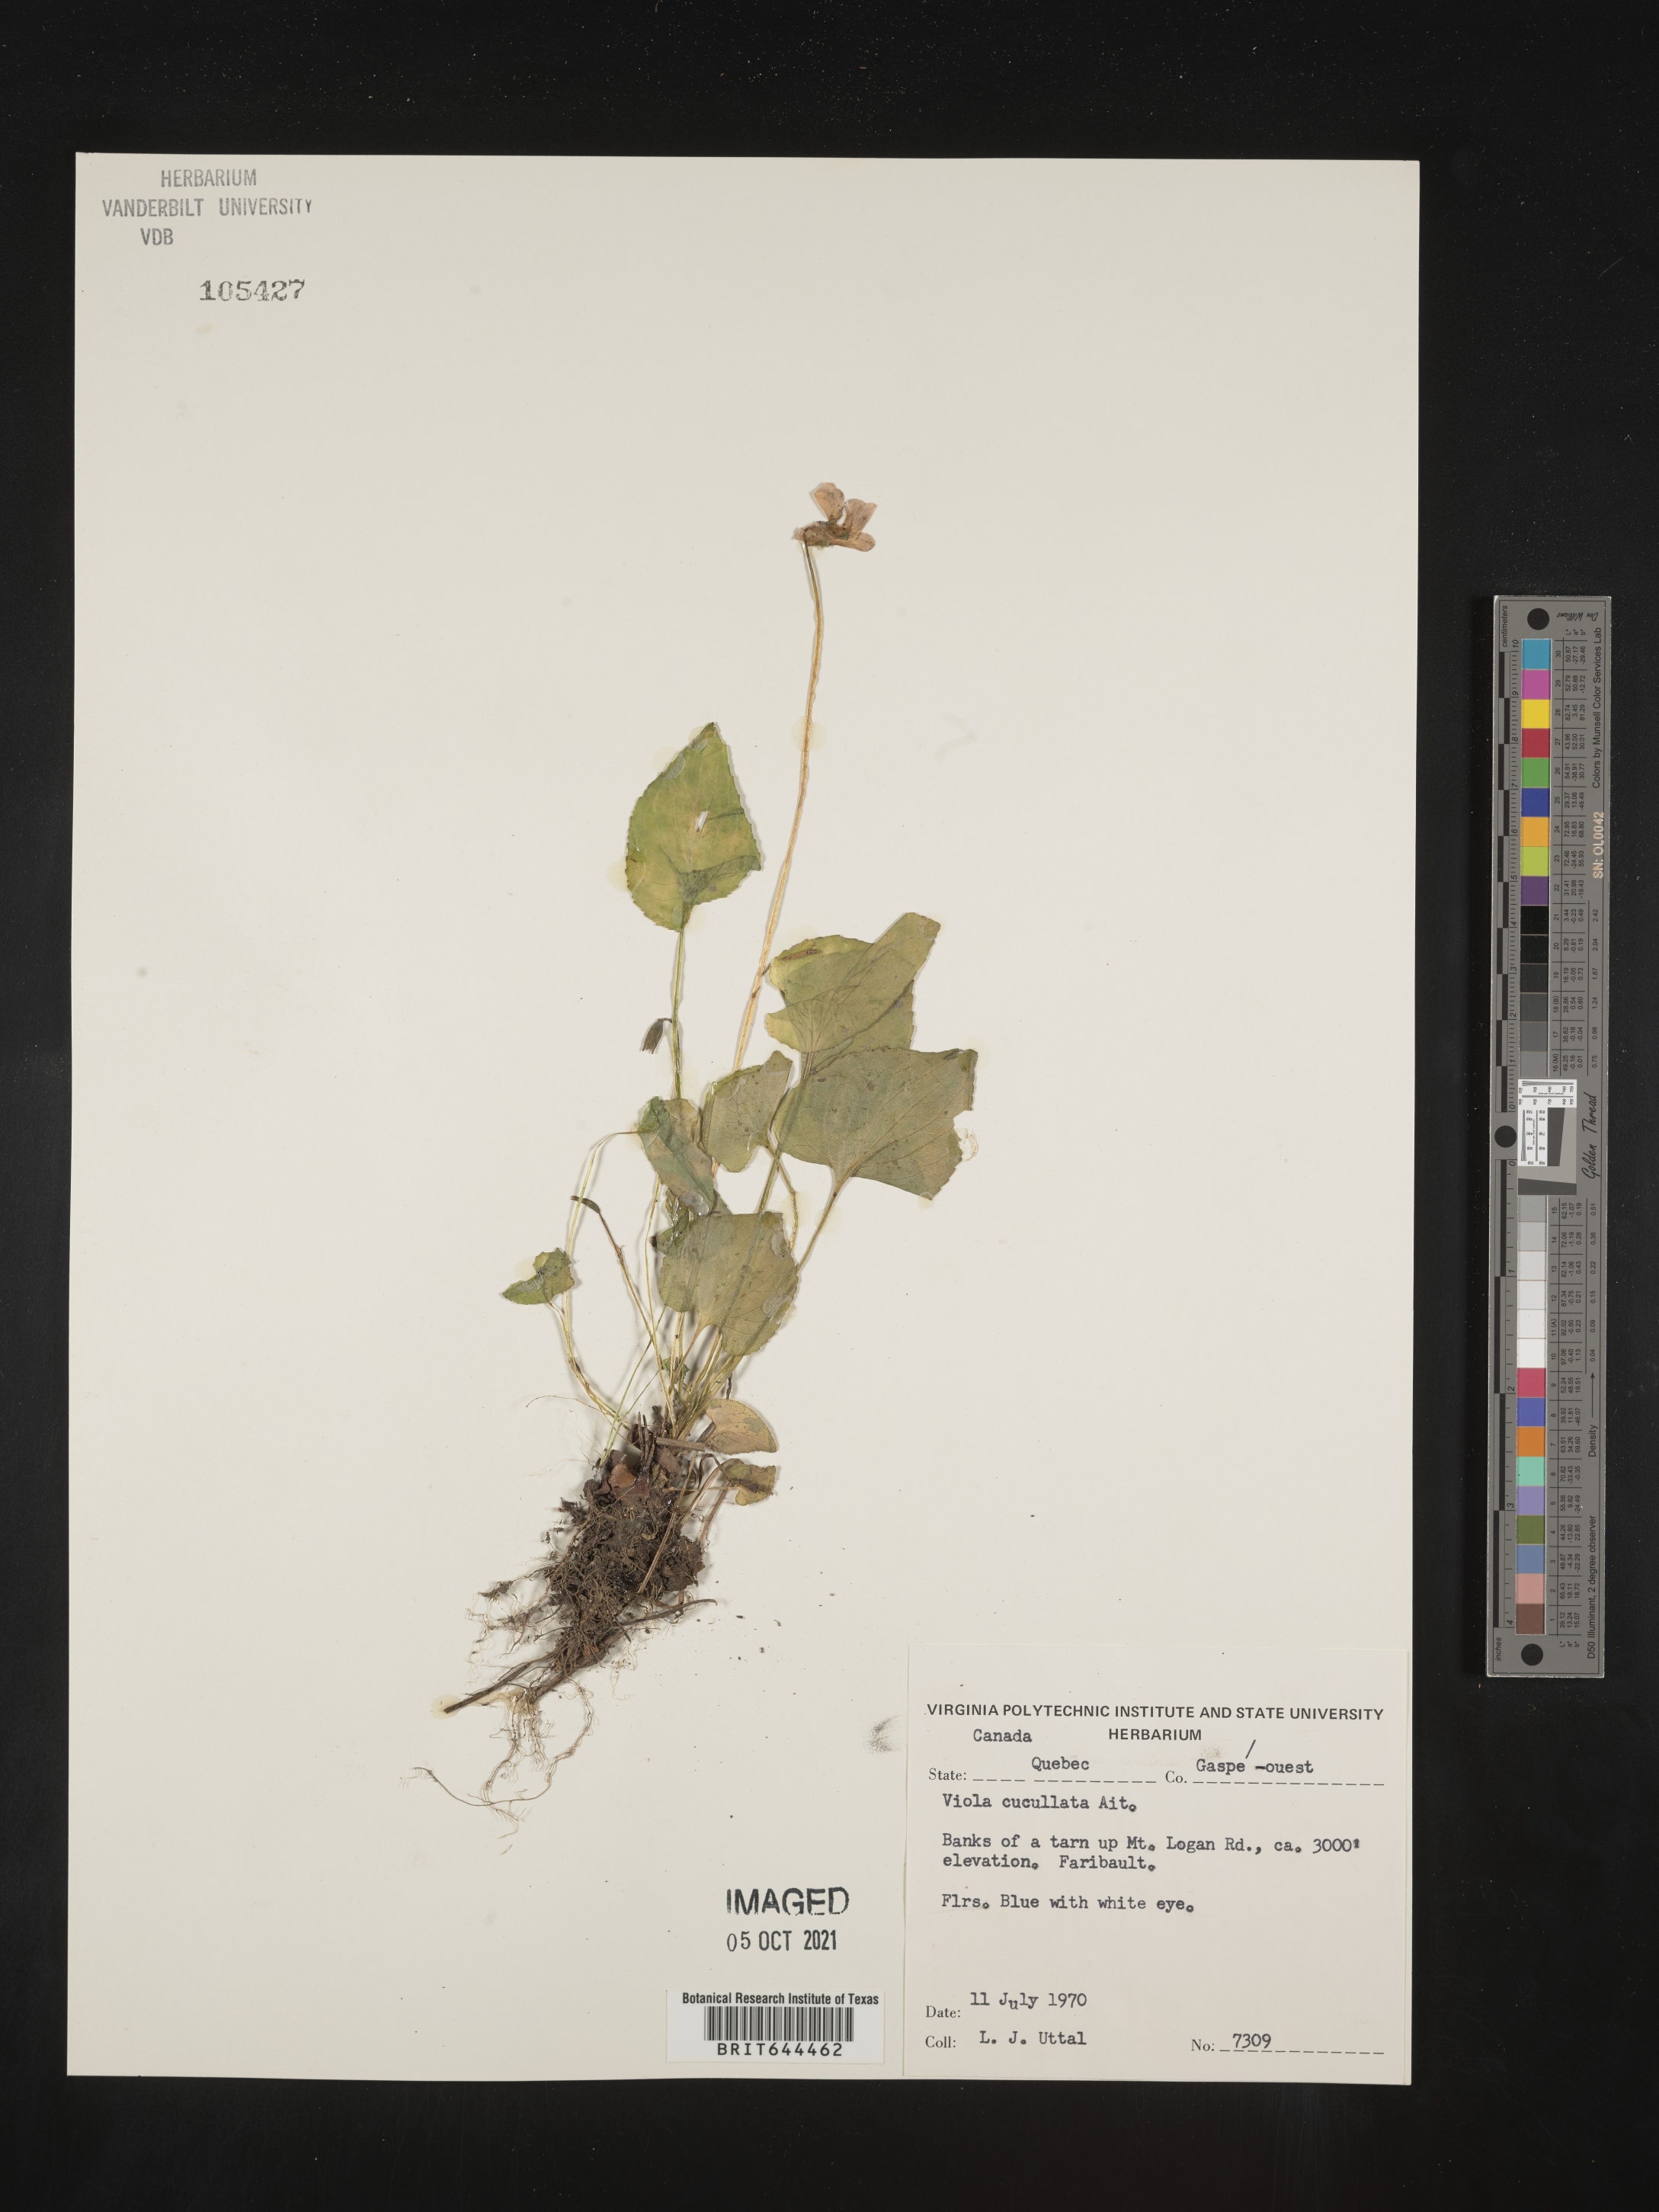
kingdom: Plantae
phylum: Tracheophyta
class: Magnoliopsida
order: Malpighiales
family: Violaceae
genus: Viola
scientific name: Viola
